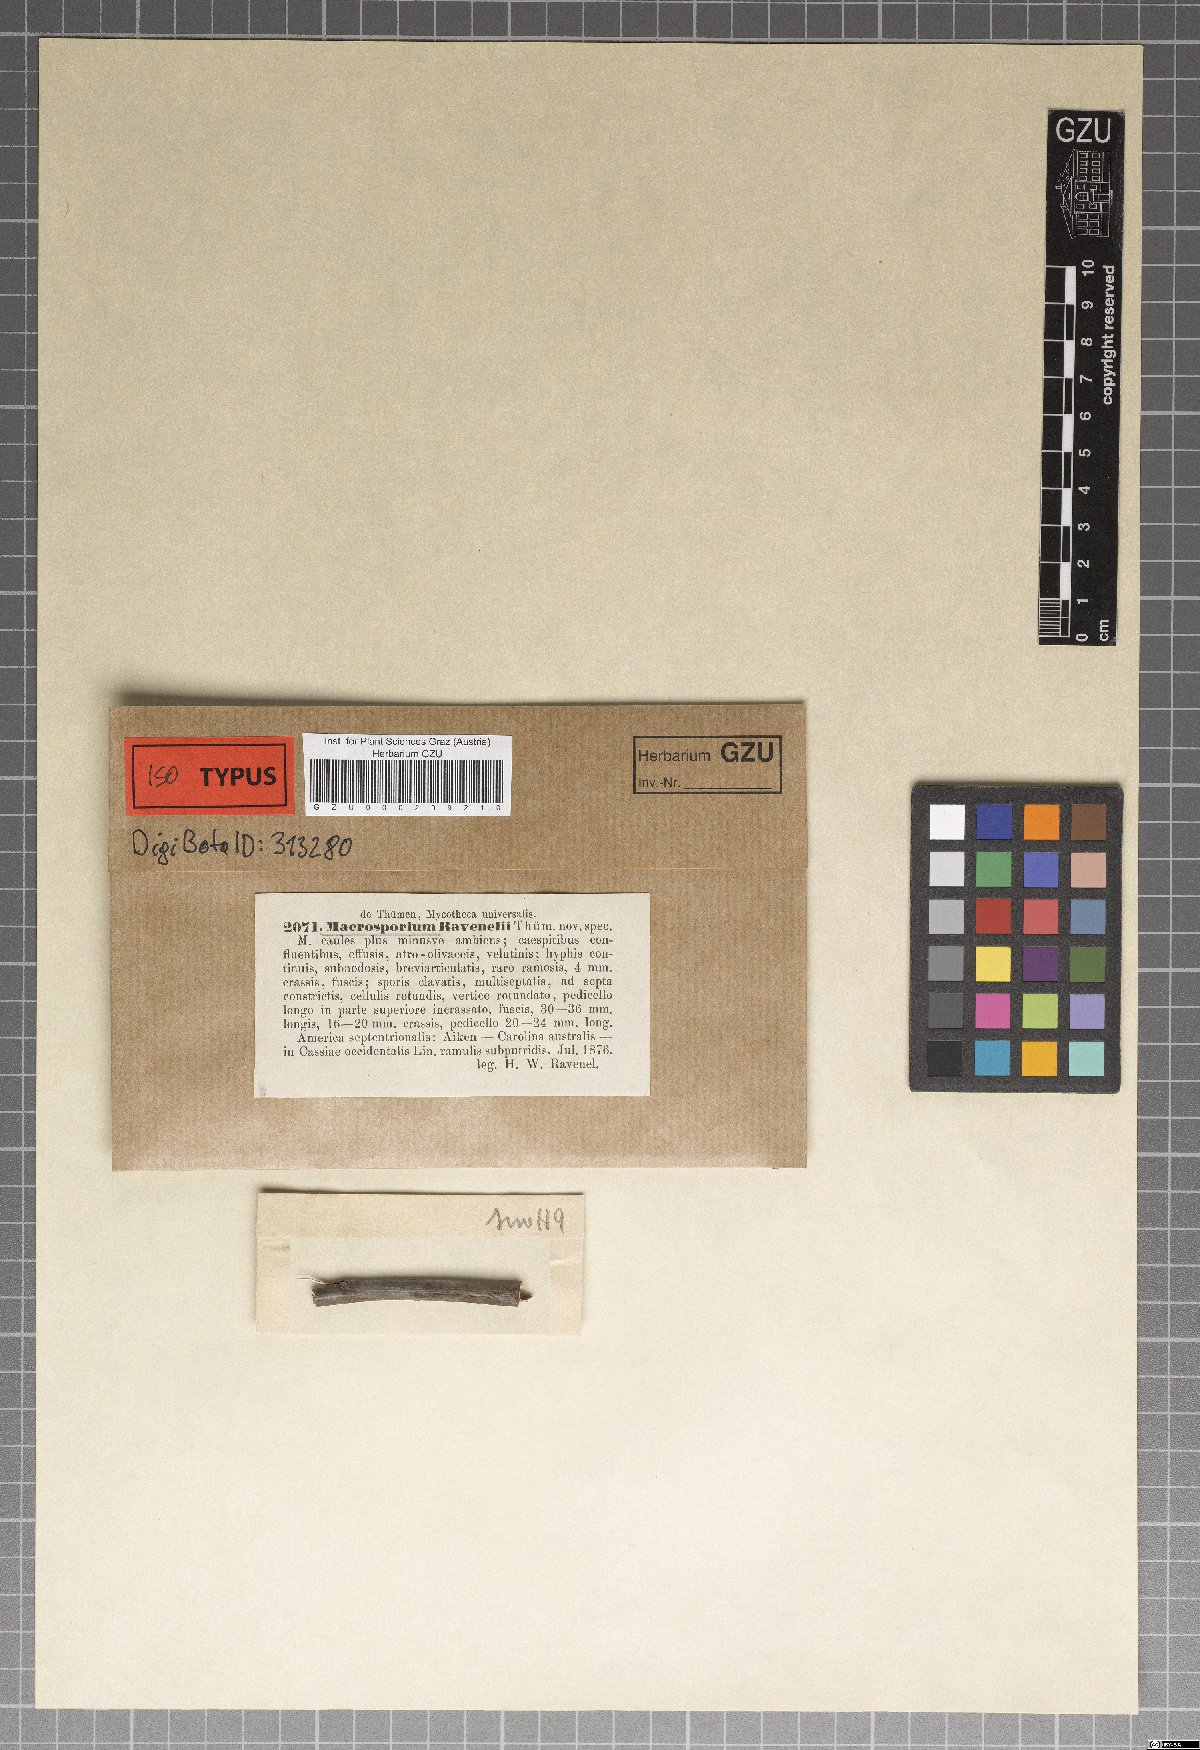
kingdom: Fungi
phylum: Ascomycota
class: Dothideomycetes
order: Pleosporales
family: Pleosporaceae
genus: Macrosporium
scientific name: Macrosporium
